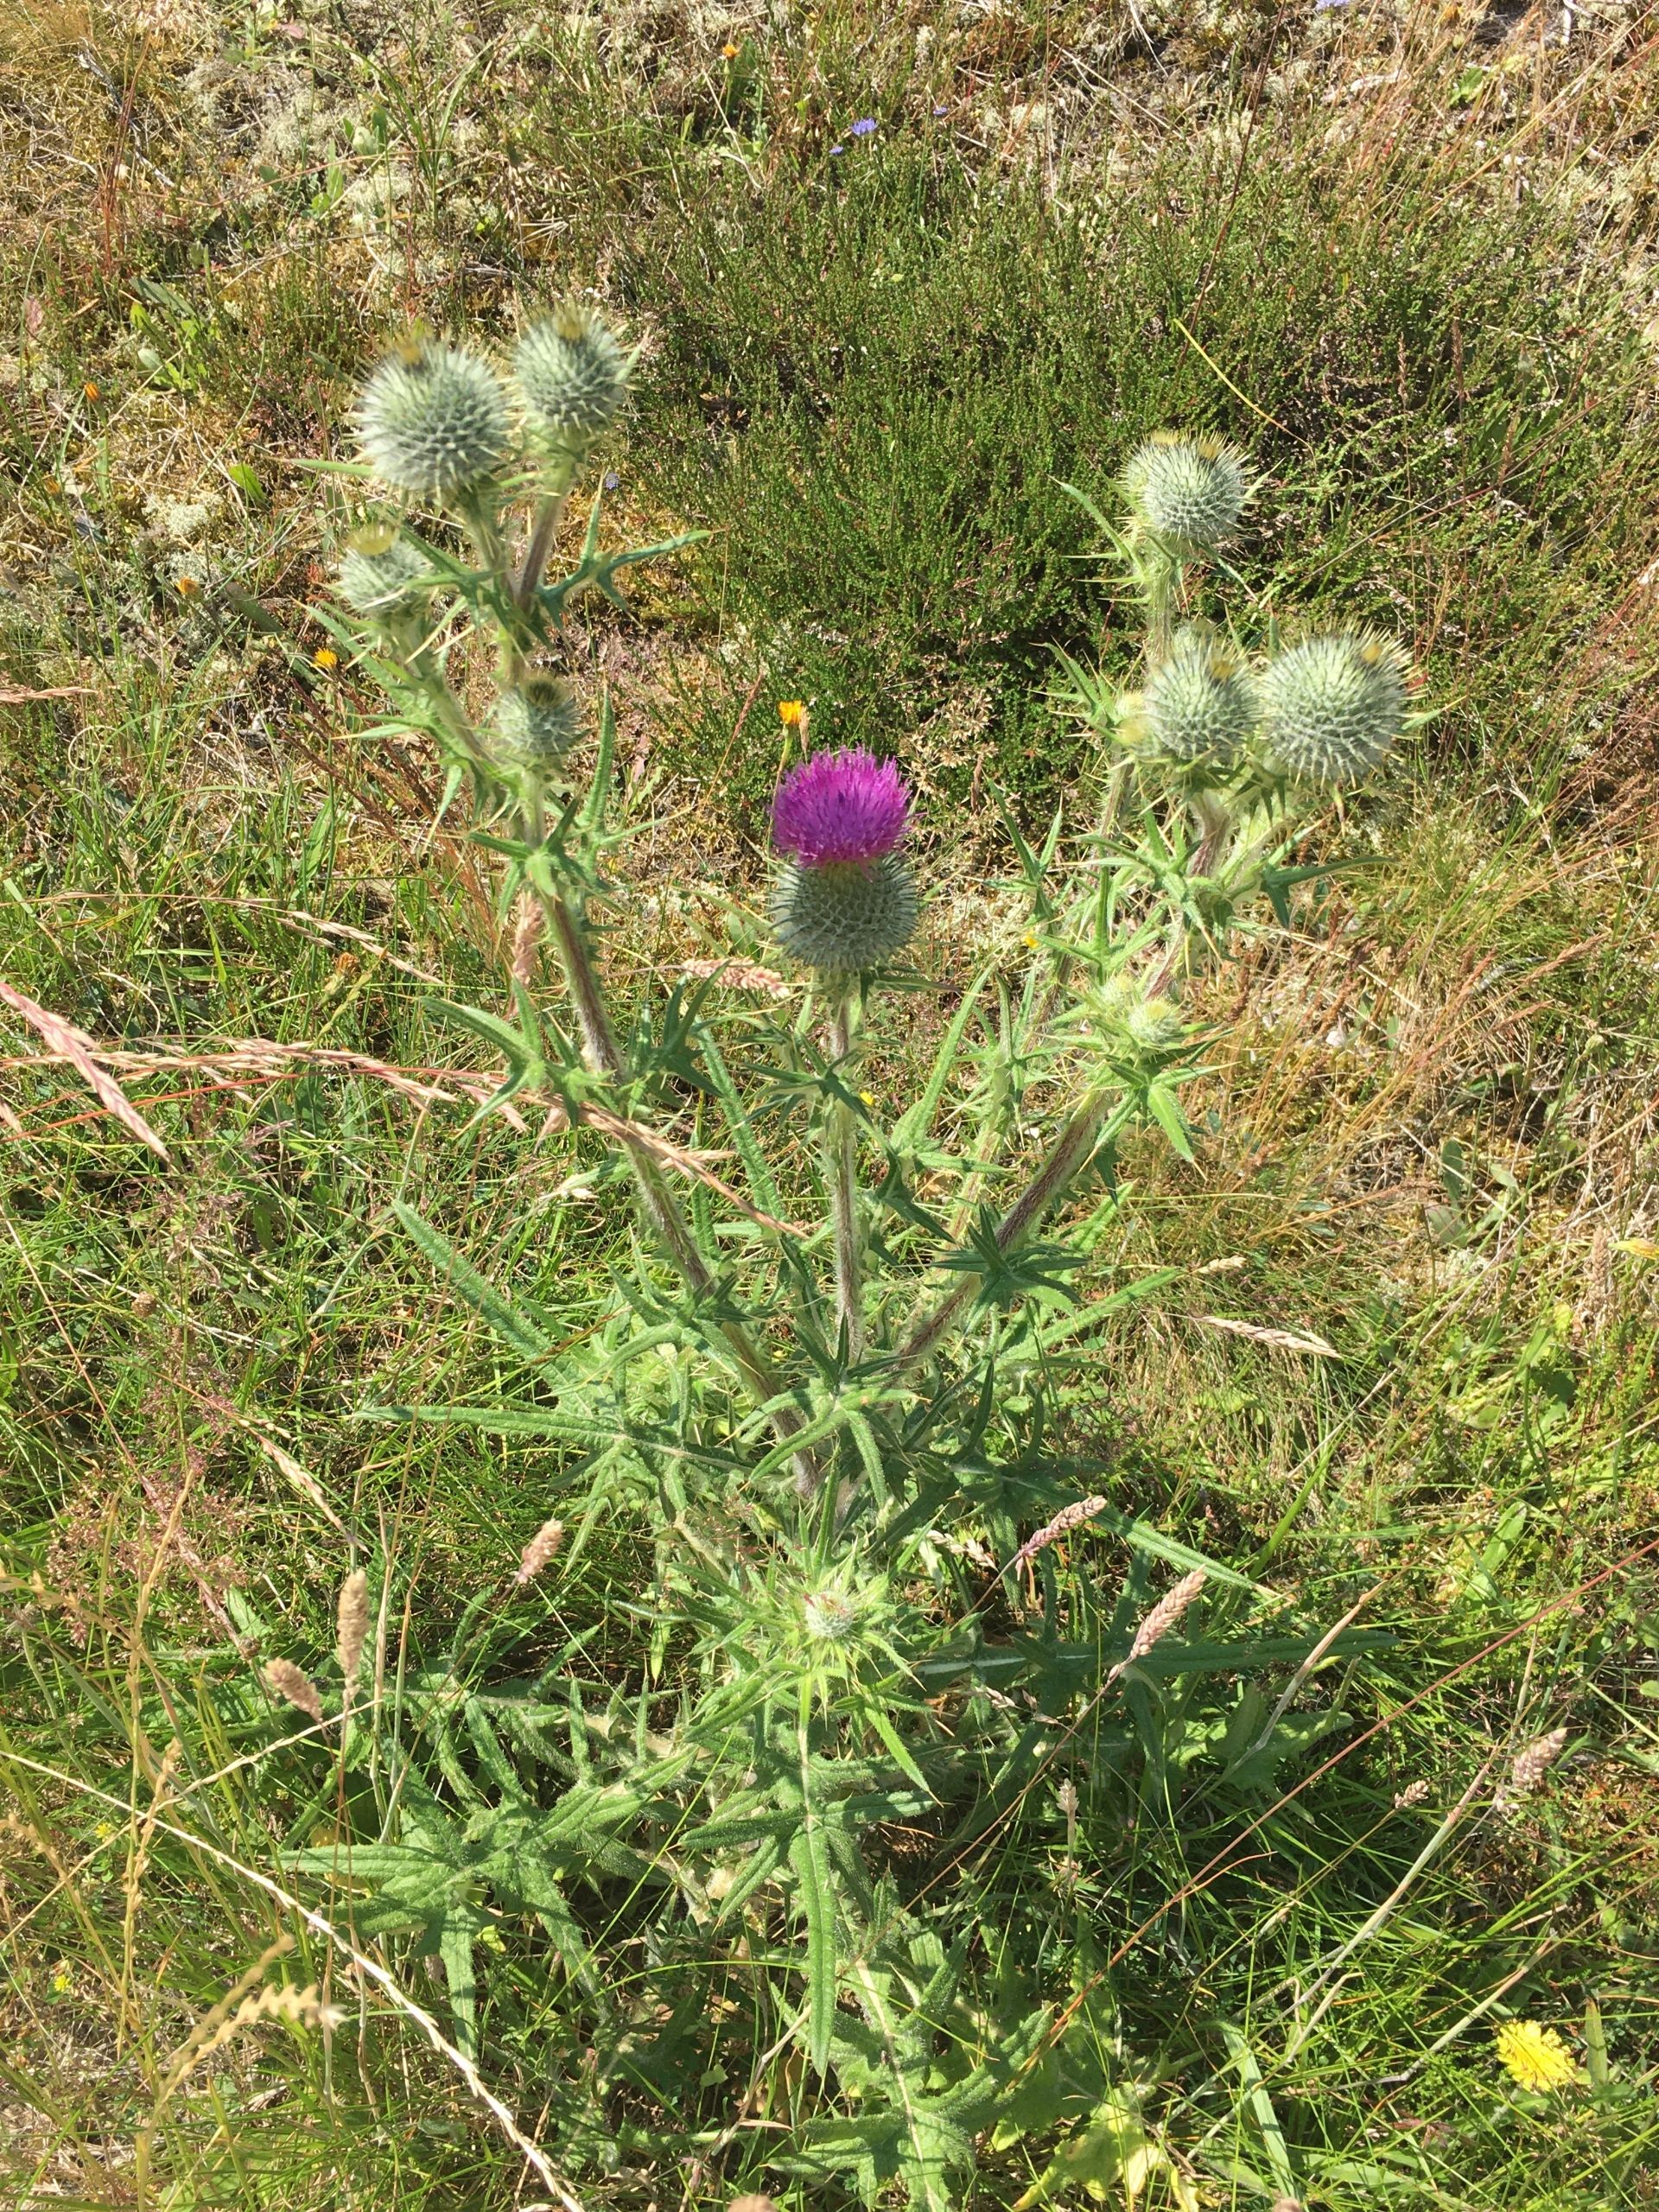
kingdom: Plantae
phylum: Tracheophyta
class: Magnoliopsida
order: Asterales
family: Asteraceae
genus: Cirsium
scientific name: Cirsium vulgare
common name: Horse-tidsel
